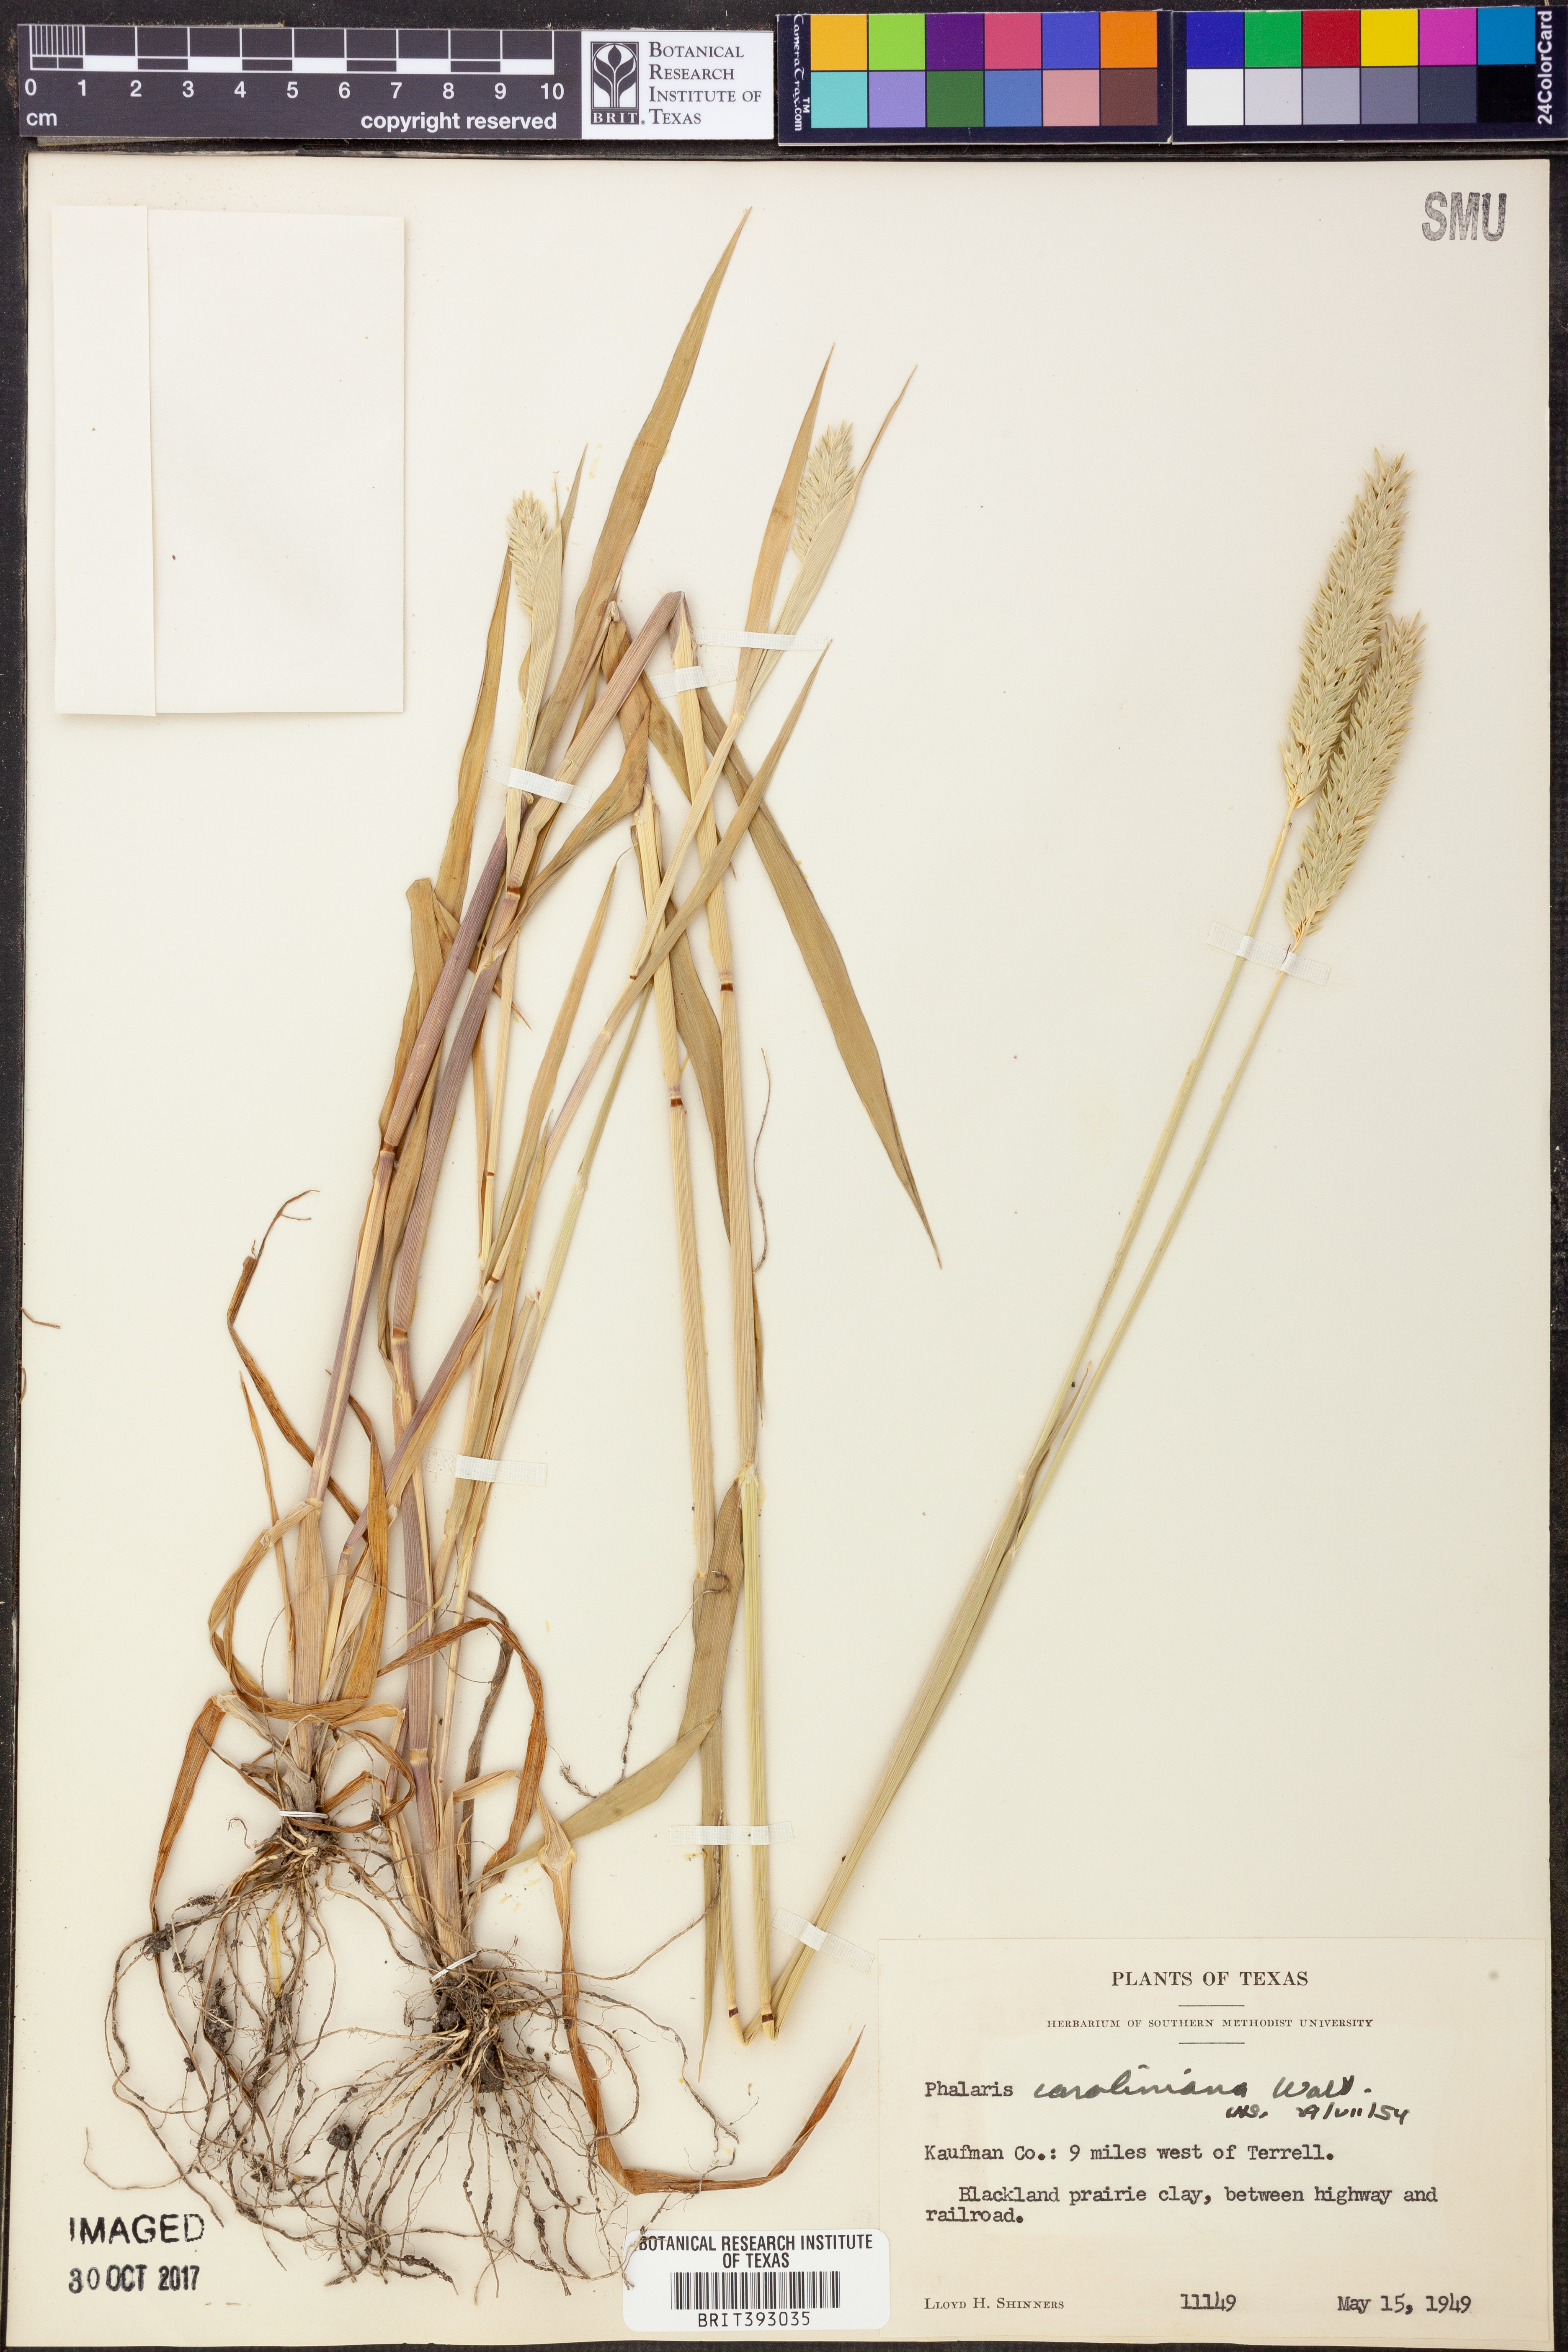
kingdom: Plantae
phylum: Tracheophyta
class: Liliopsida
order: Poales
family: Poaceae
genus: Phalaris
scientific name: Phalaris caroliniana
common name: May grass
